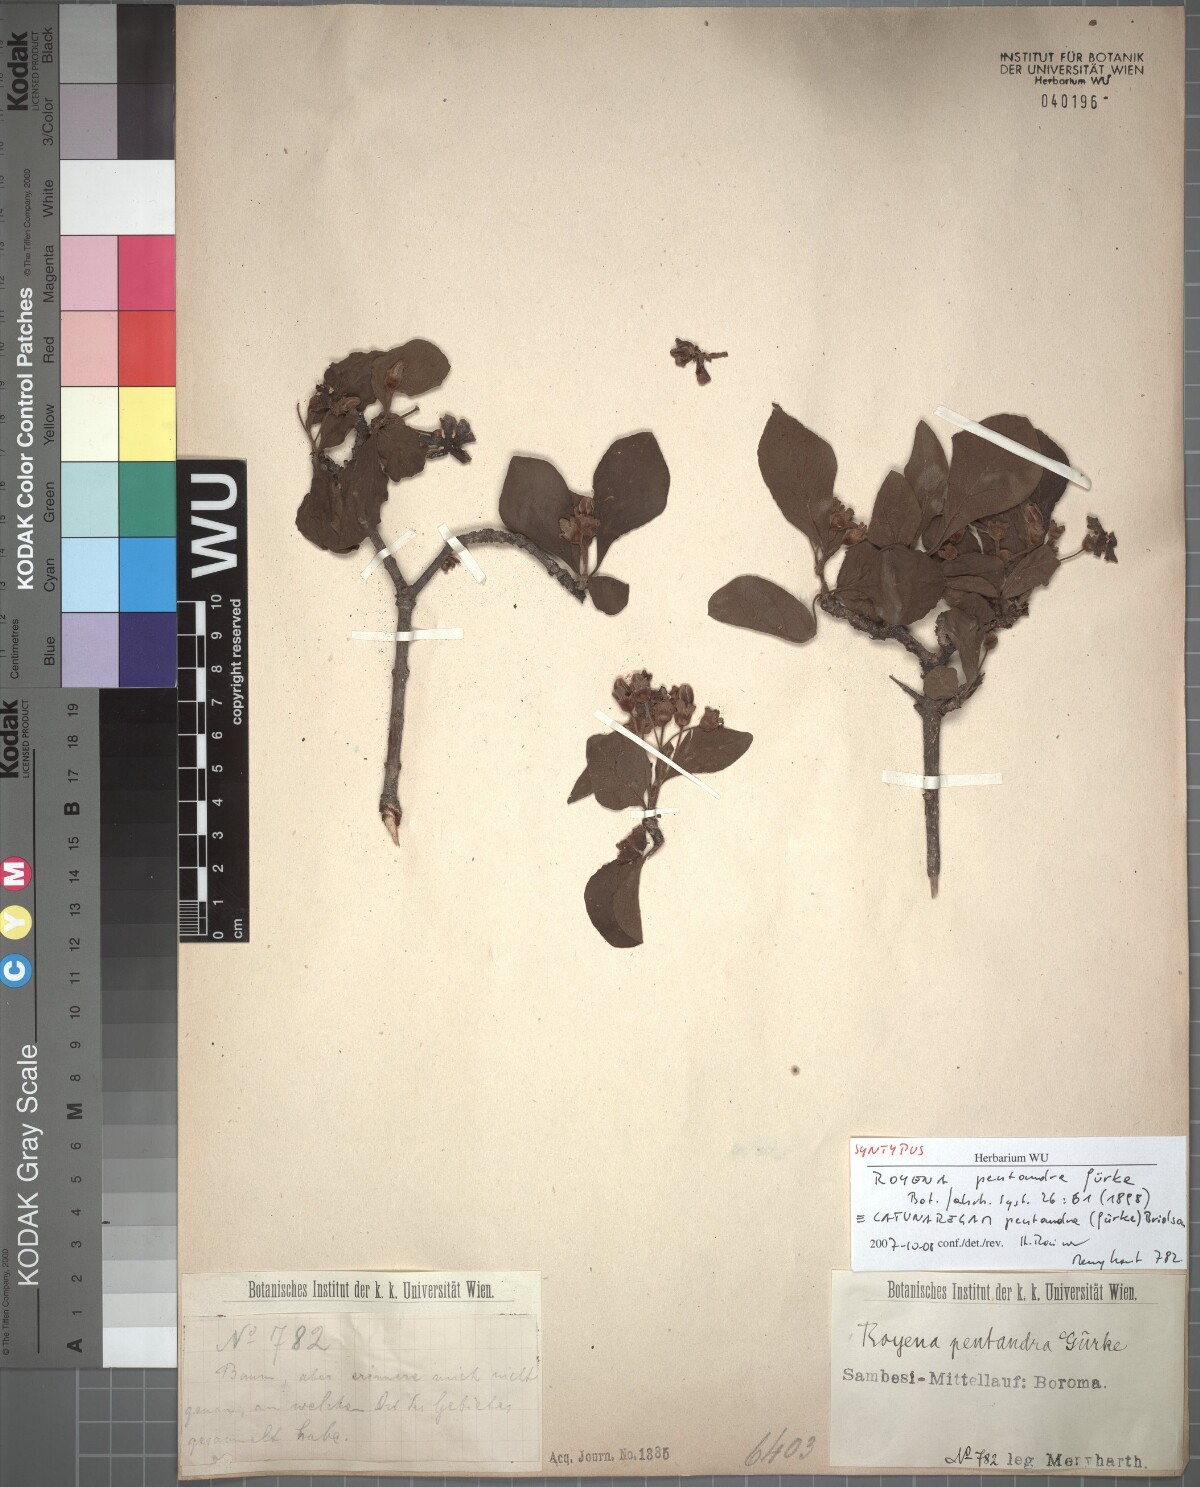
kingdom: Plantae
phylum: Tracheophyta
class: Magnoliopsida
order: Gentianales
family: Rubiaceae
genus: Catunaregam
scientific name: Catunaregam pentandra
